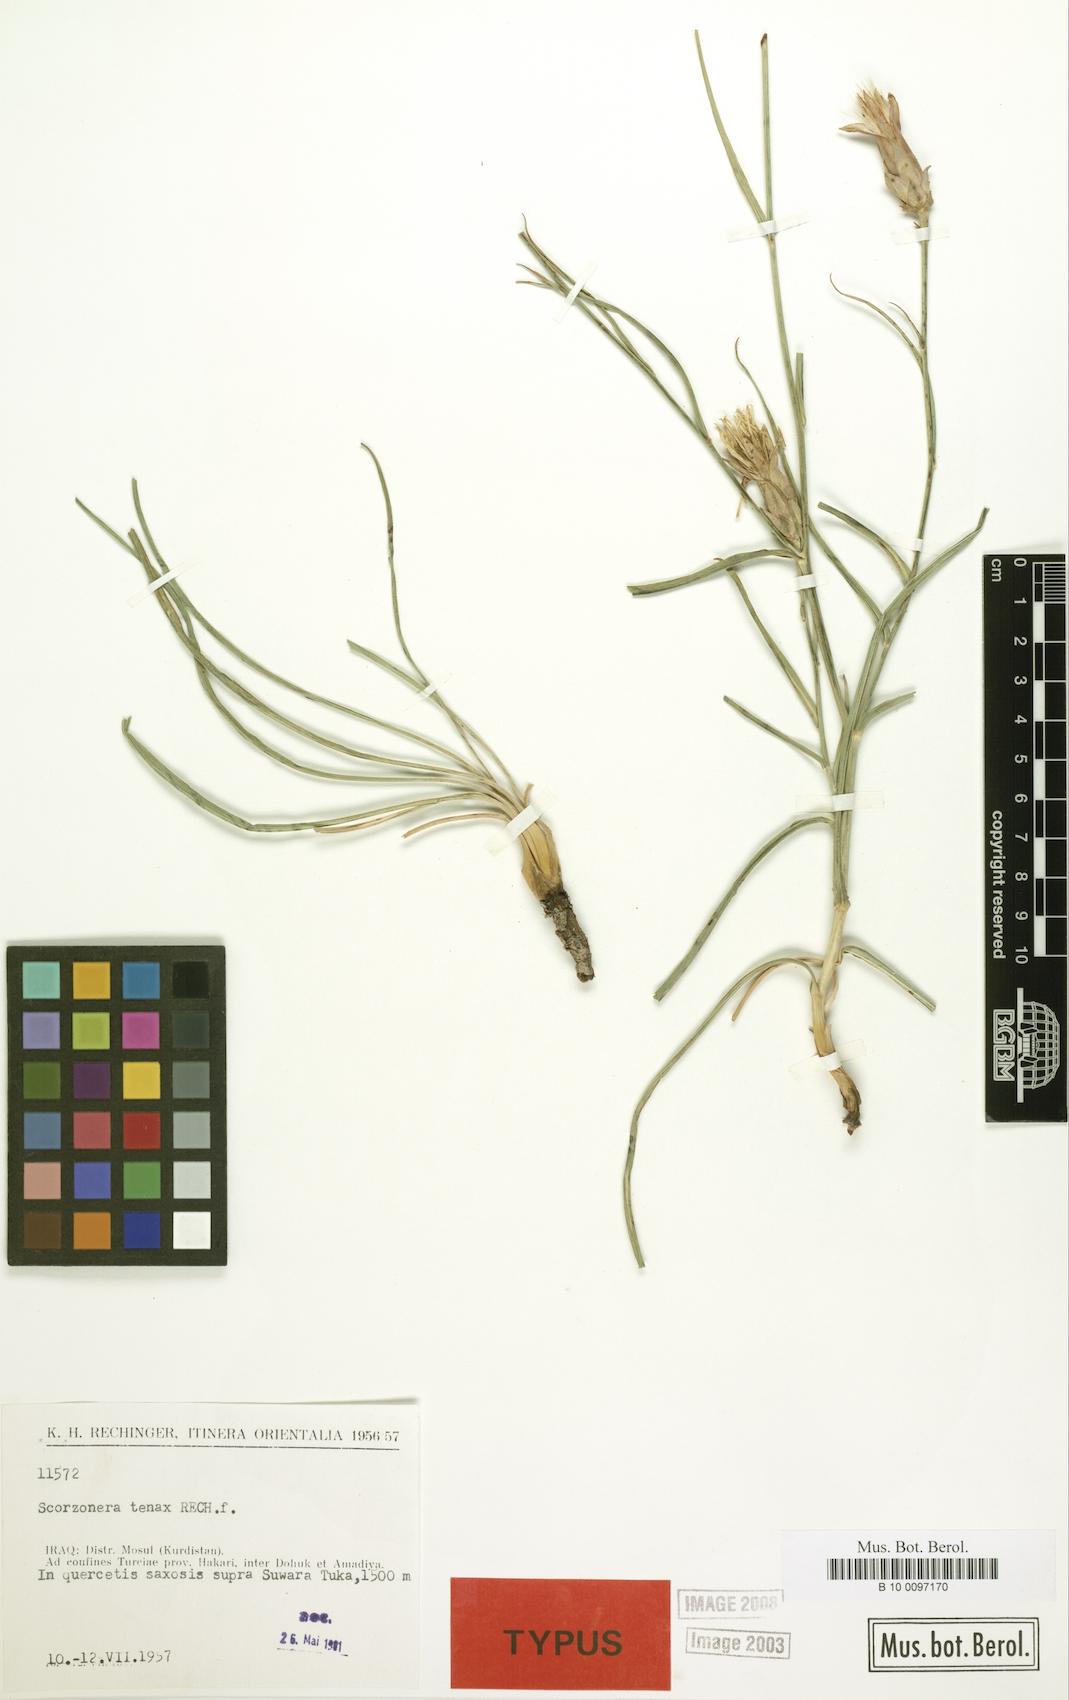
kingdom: Plantae
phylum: Tracheophyta
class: Magnoliopsida
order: Asterales
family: Asteraceae
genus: Candollea
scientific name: Candollea davisii
